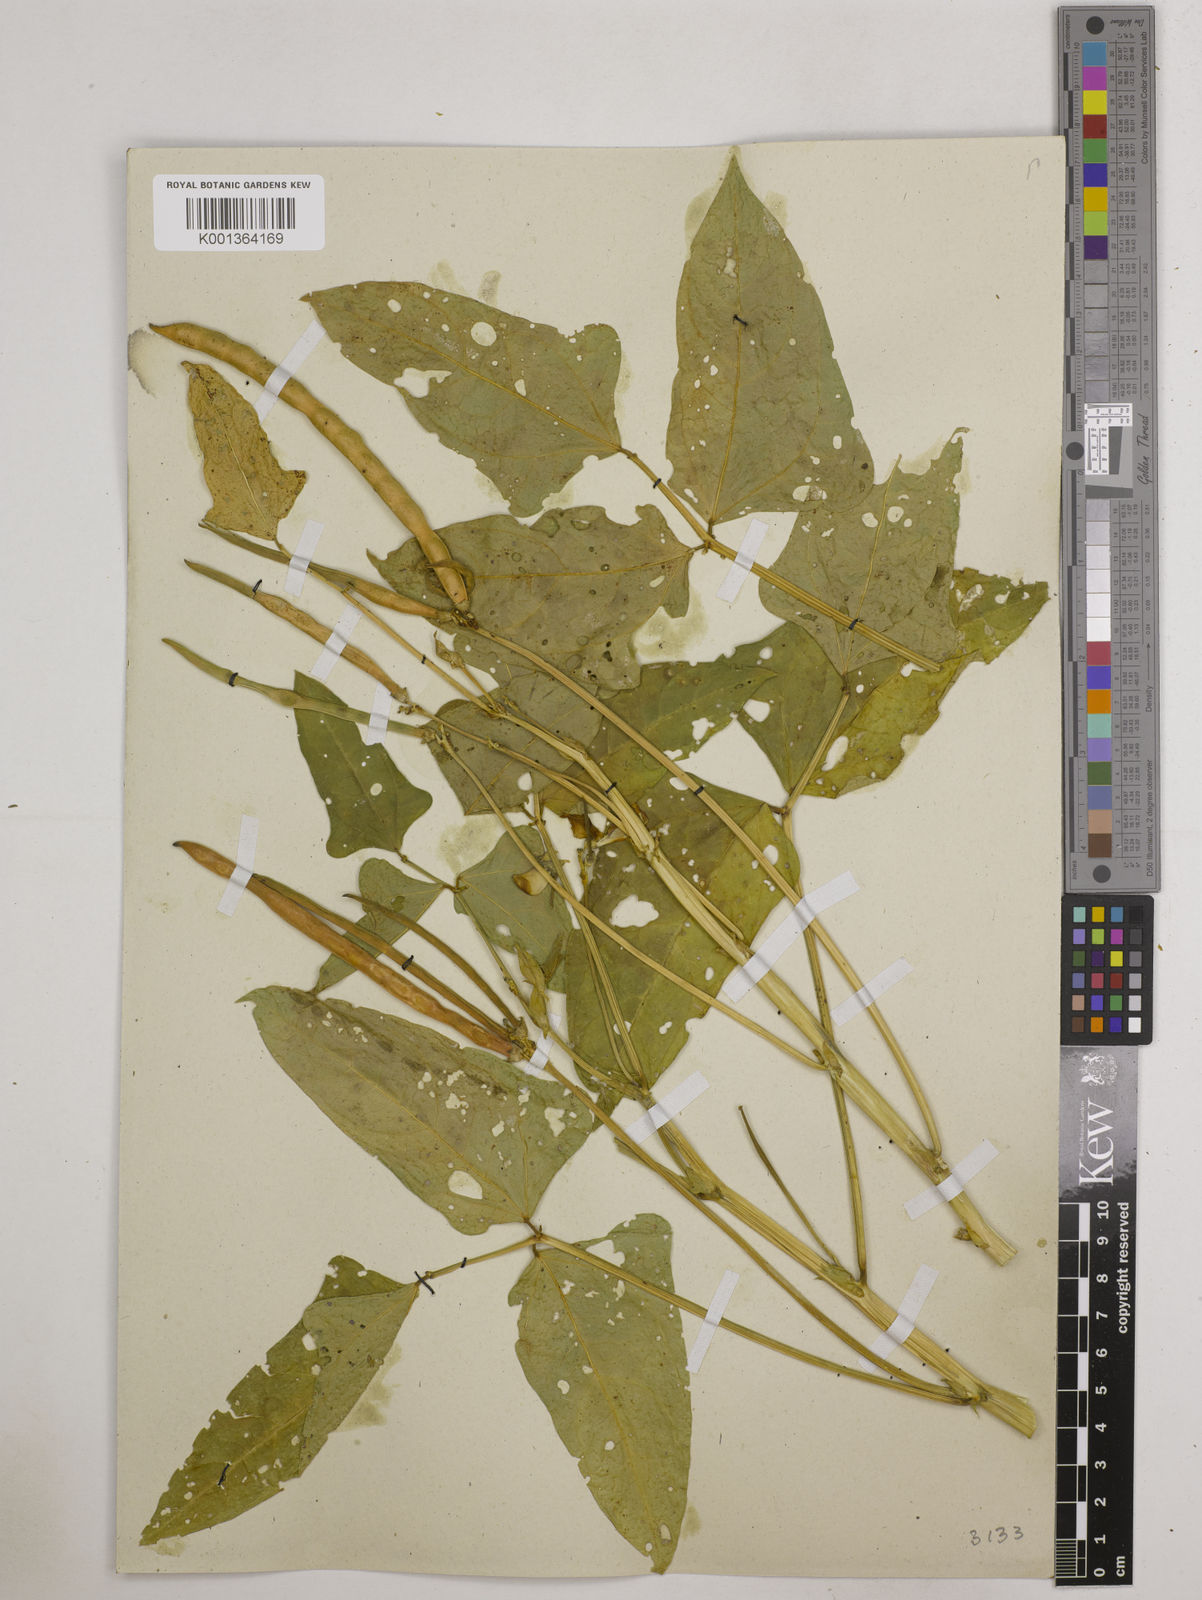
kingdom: Plantae
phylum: Tracheophyta
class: Magnoliopsida
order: Fabales
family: Fabaceae
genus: Vigna
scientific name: Vigna
